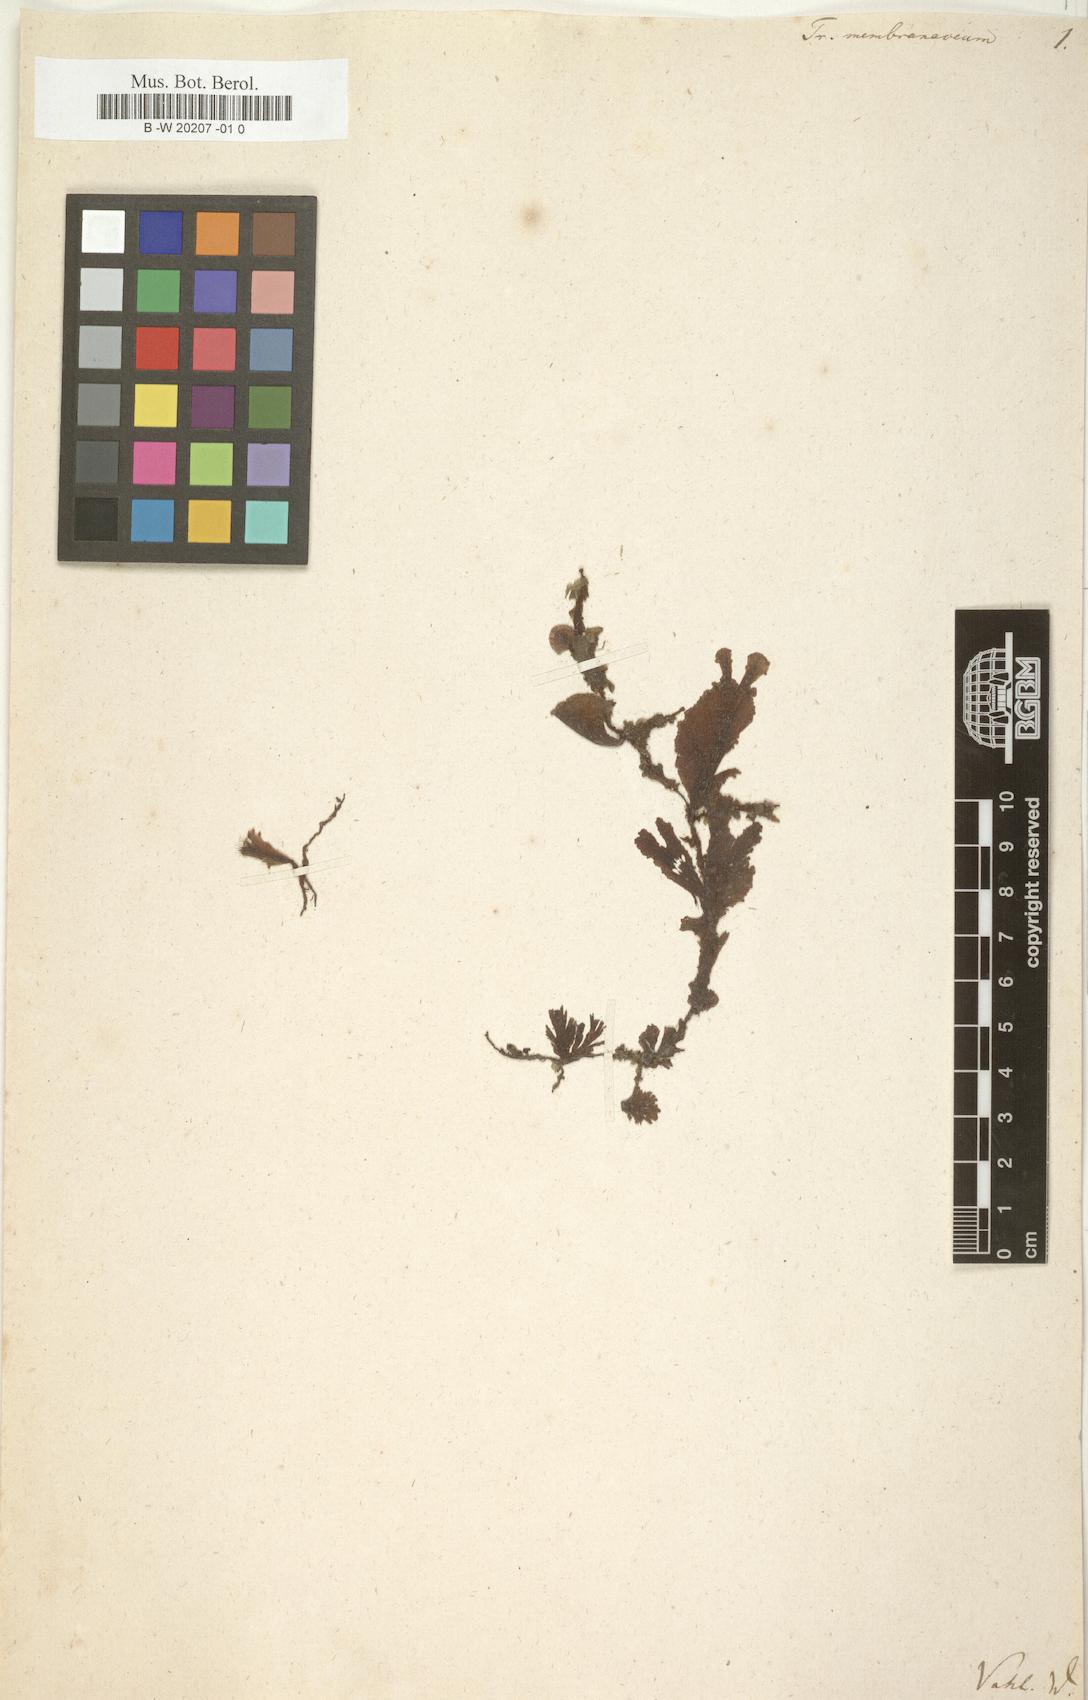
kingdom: Plantae
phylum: Tracheophyta
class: Polypodiopsida
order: Hymenophyllales
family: Hymenophyllaceae
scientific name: Hymenophyllaceae
